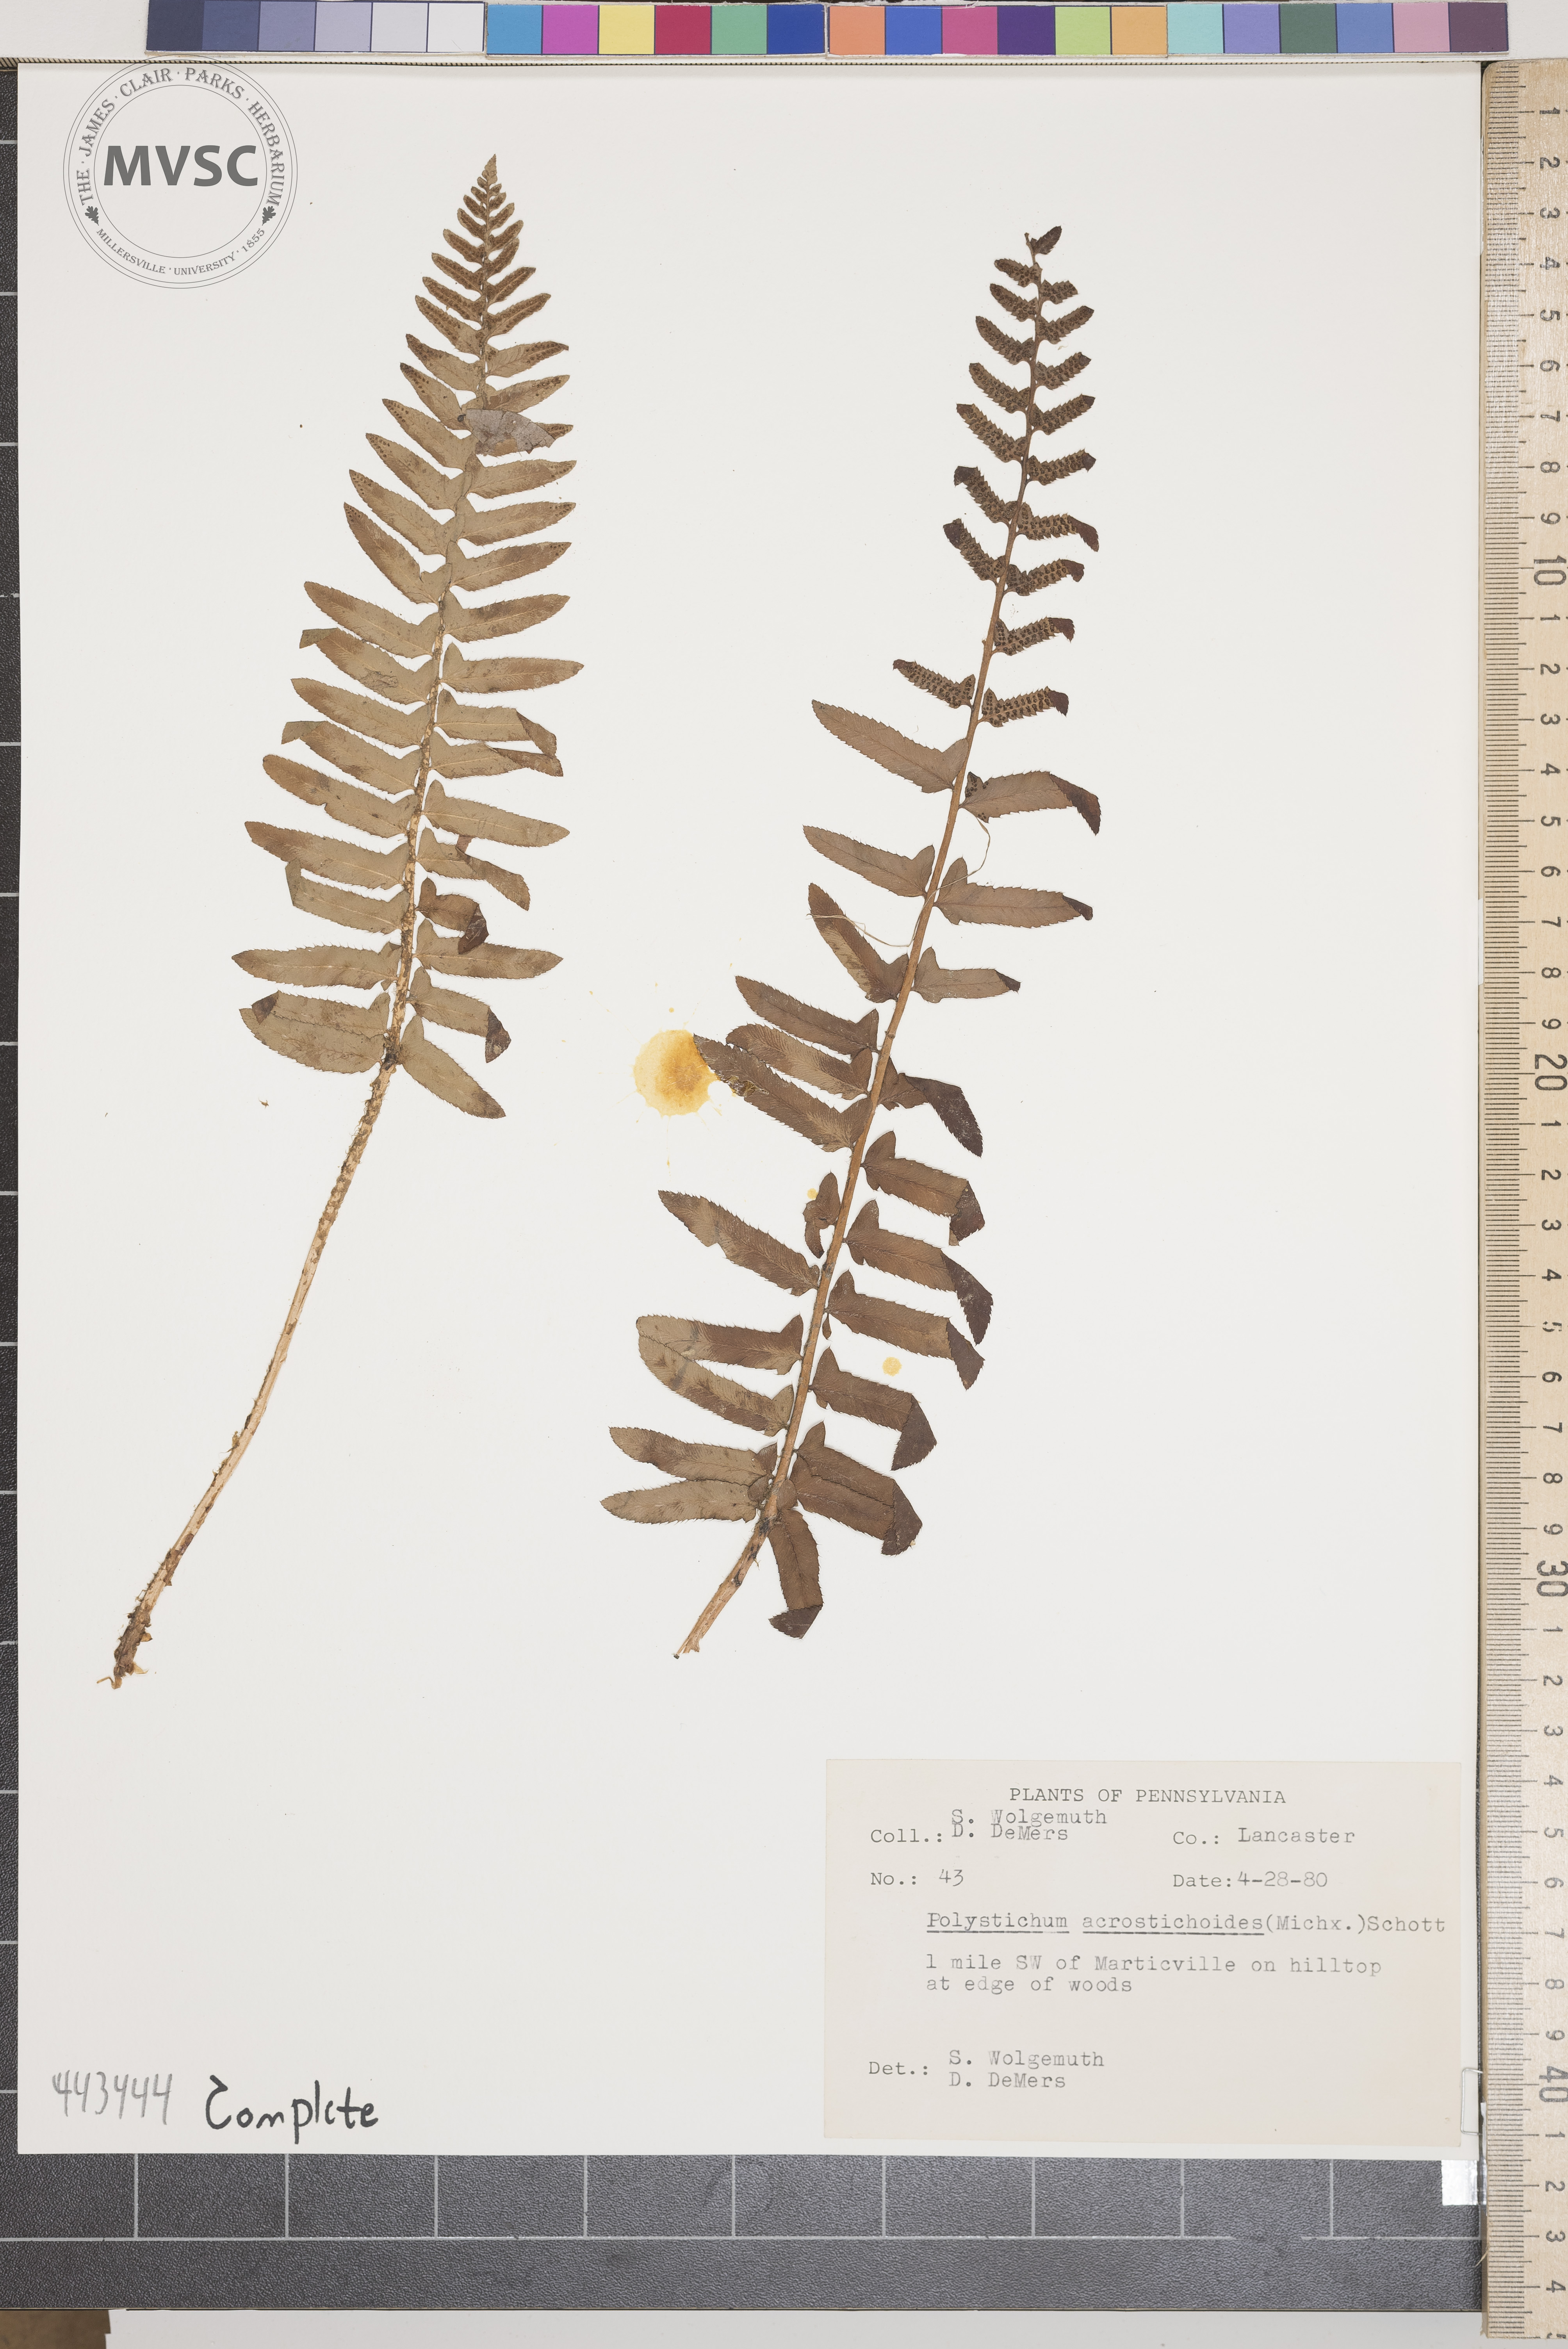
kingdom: Plantae
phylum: Tracheophyta
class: Polypodiopsida
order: Polypodiales
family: Dryopteridaceae
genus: Polystichum
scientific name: Polystichum acrostichoides
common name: Christmas fern
